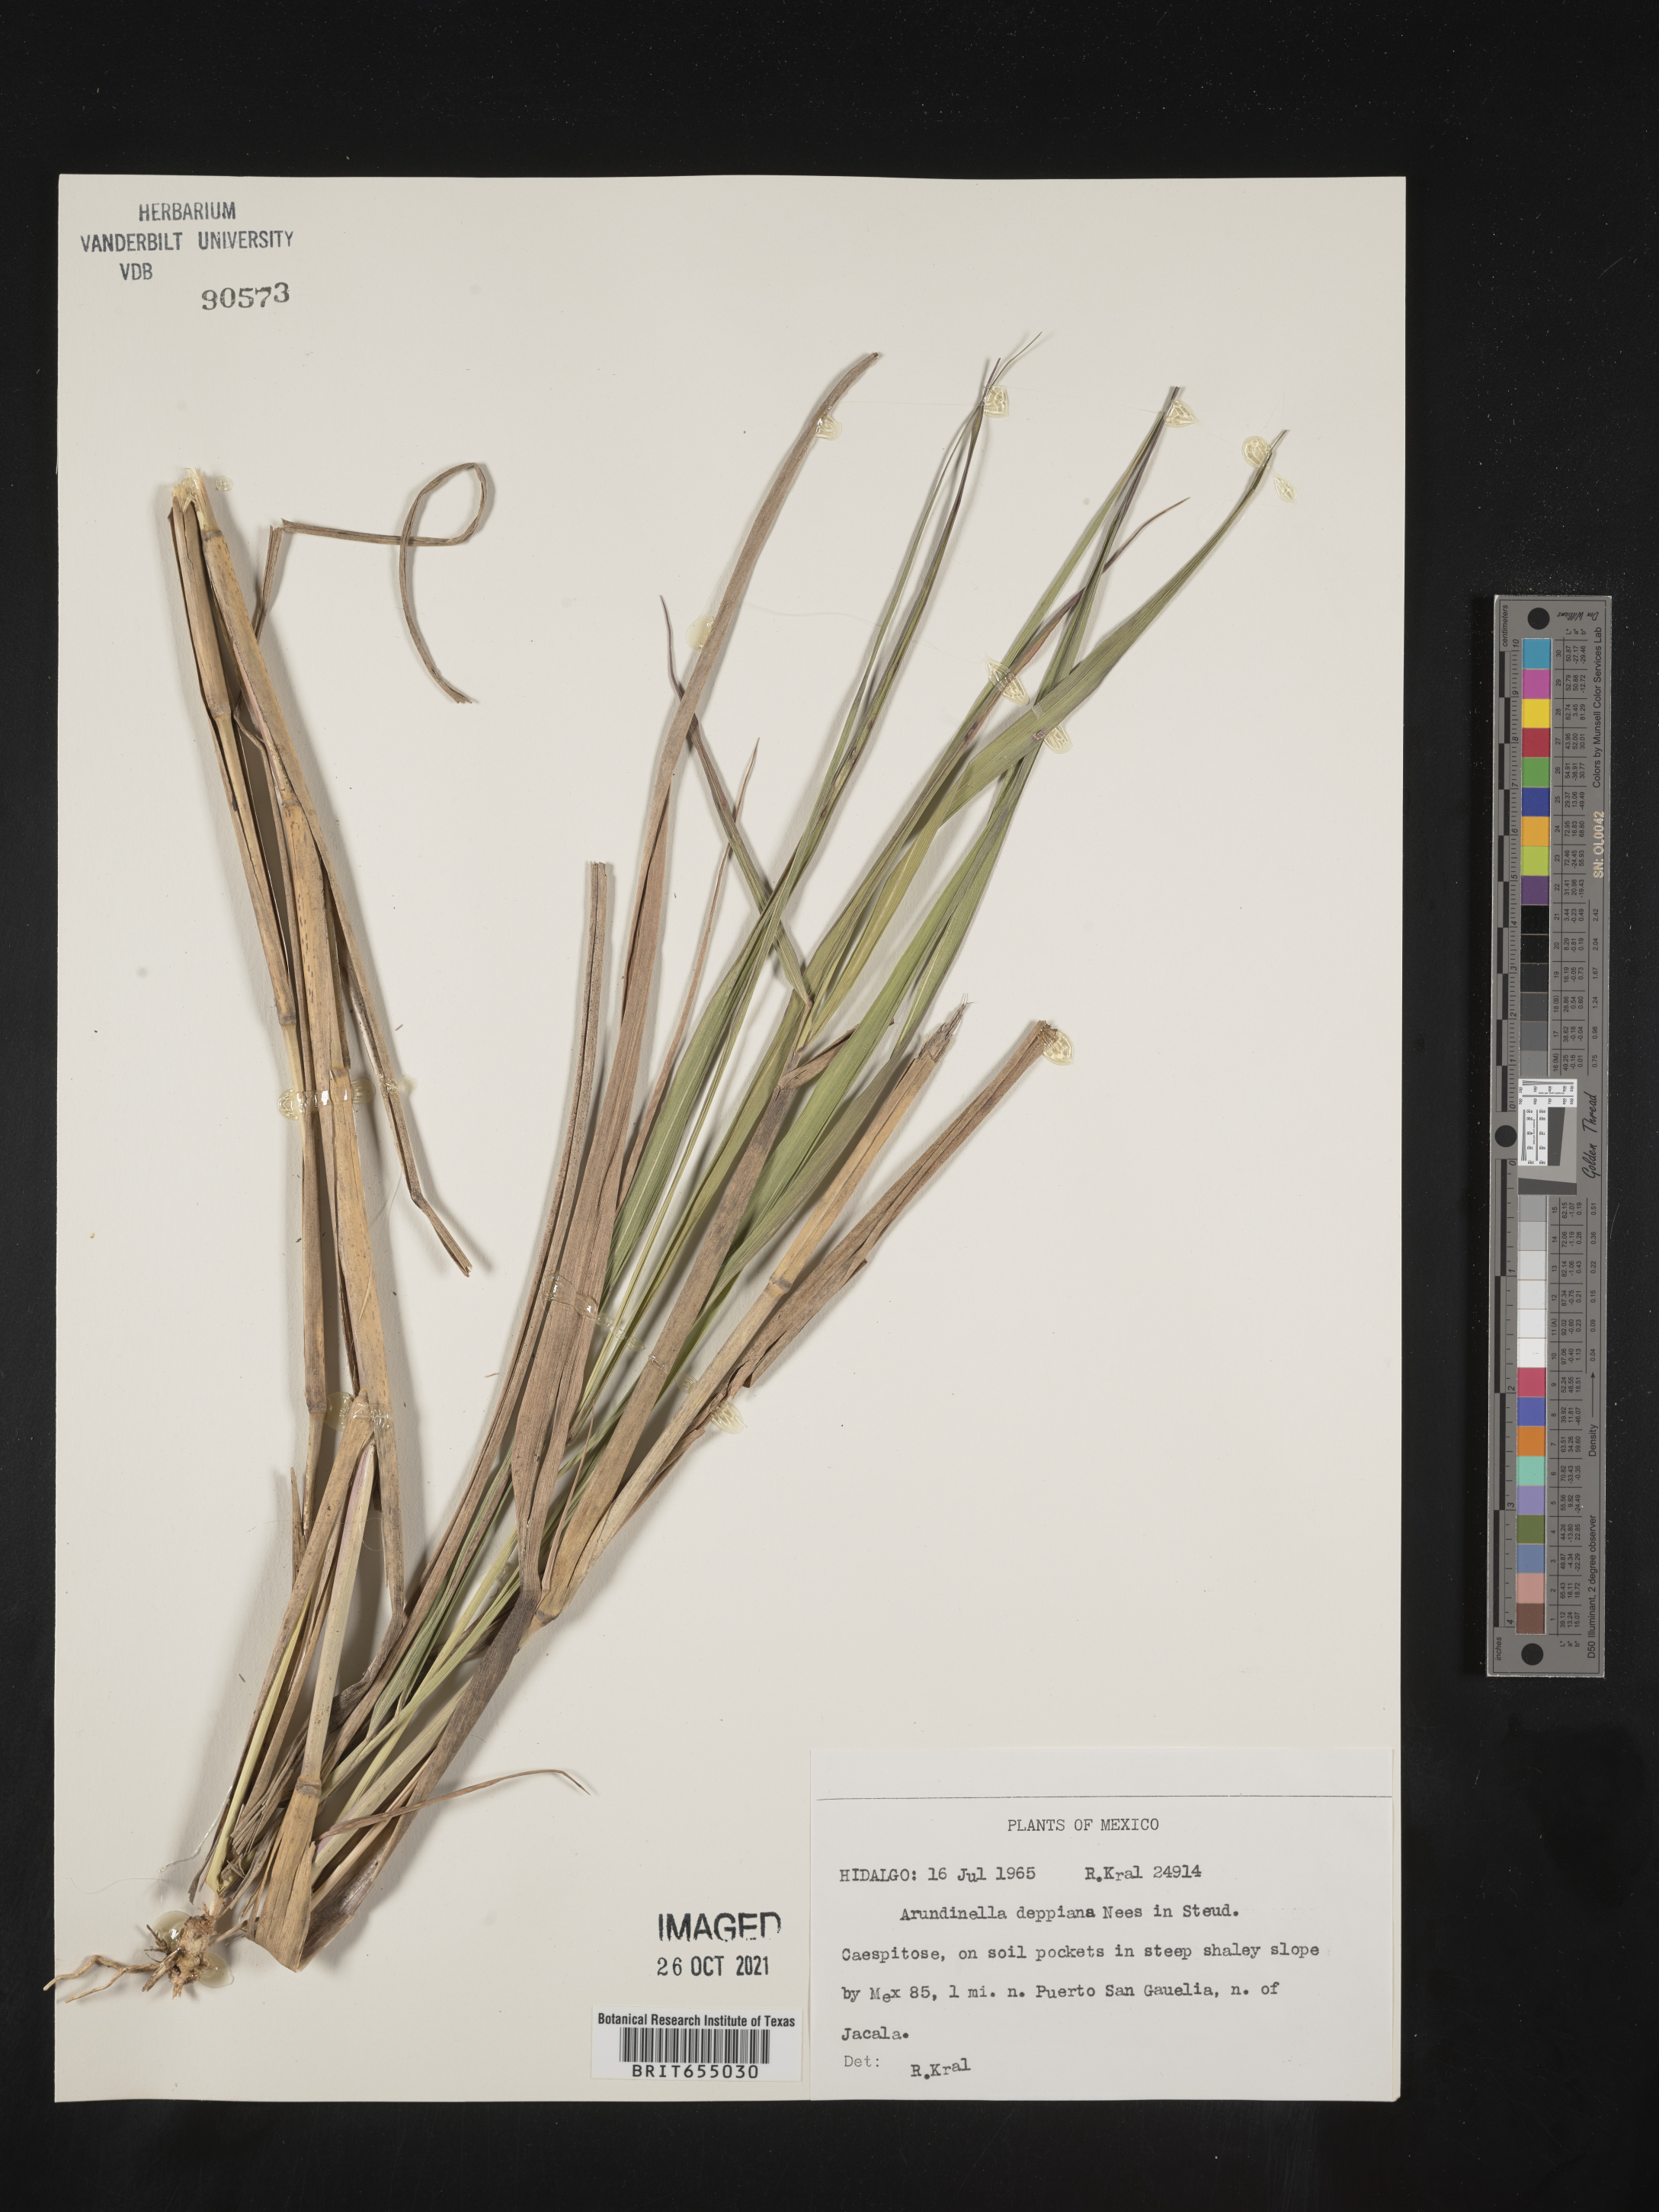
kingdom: Plantae
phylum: Tracheophyta
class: Liliopsida
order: Poales
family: Poaceae
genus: Arundinella
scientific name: Arundinella
